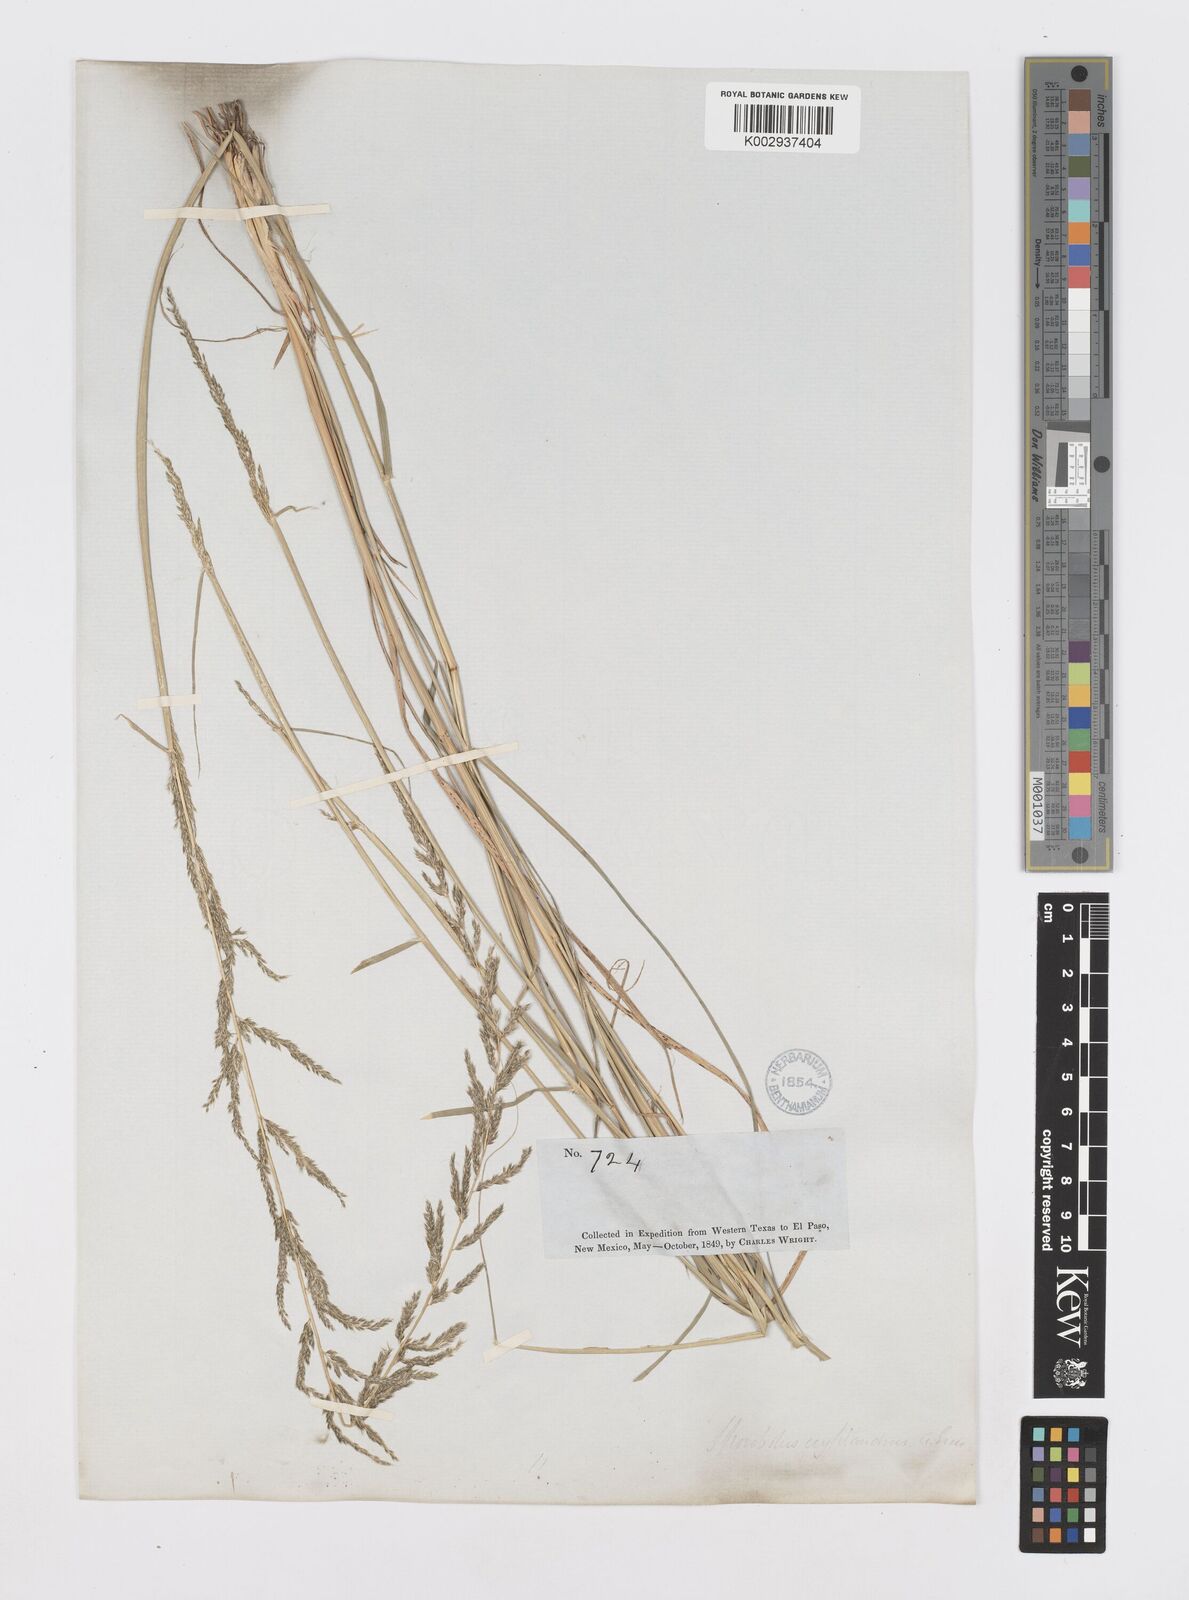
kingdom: Plantae
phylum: Tracheophyta
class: Liliopsida
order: Poales
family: Poaceae
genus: Sporobolus
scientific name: Sporobolus cryptandrus
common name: Sand dropseed
